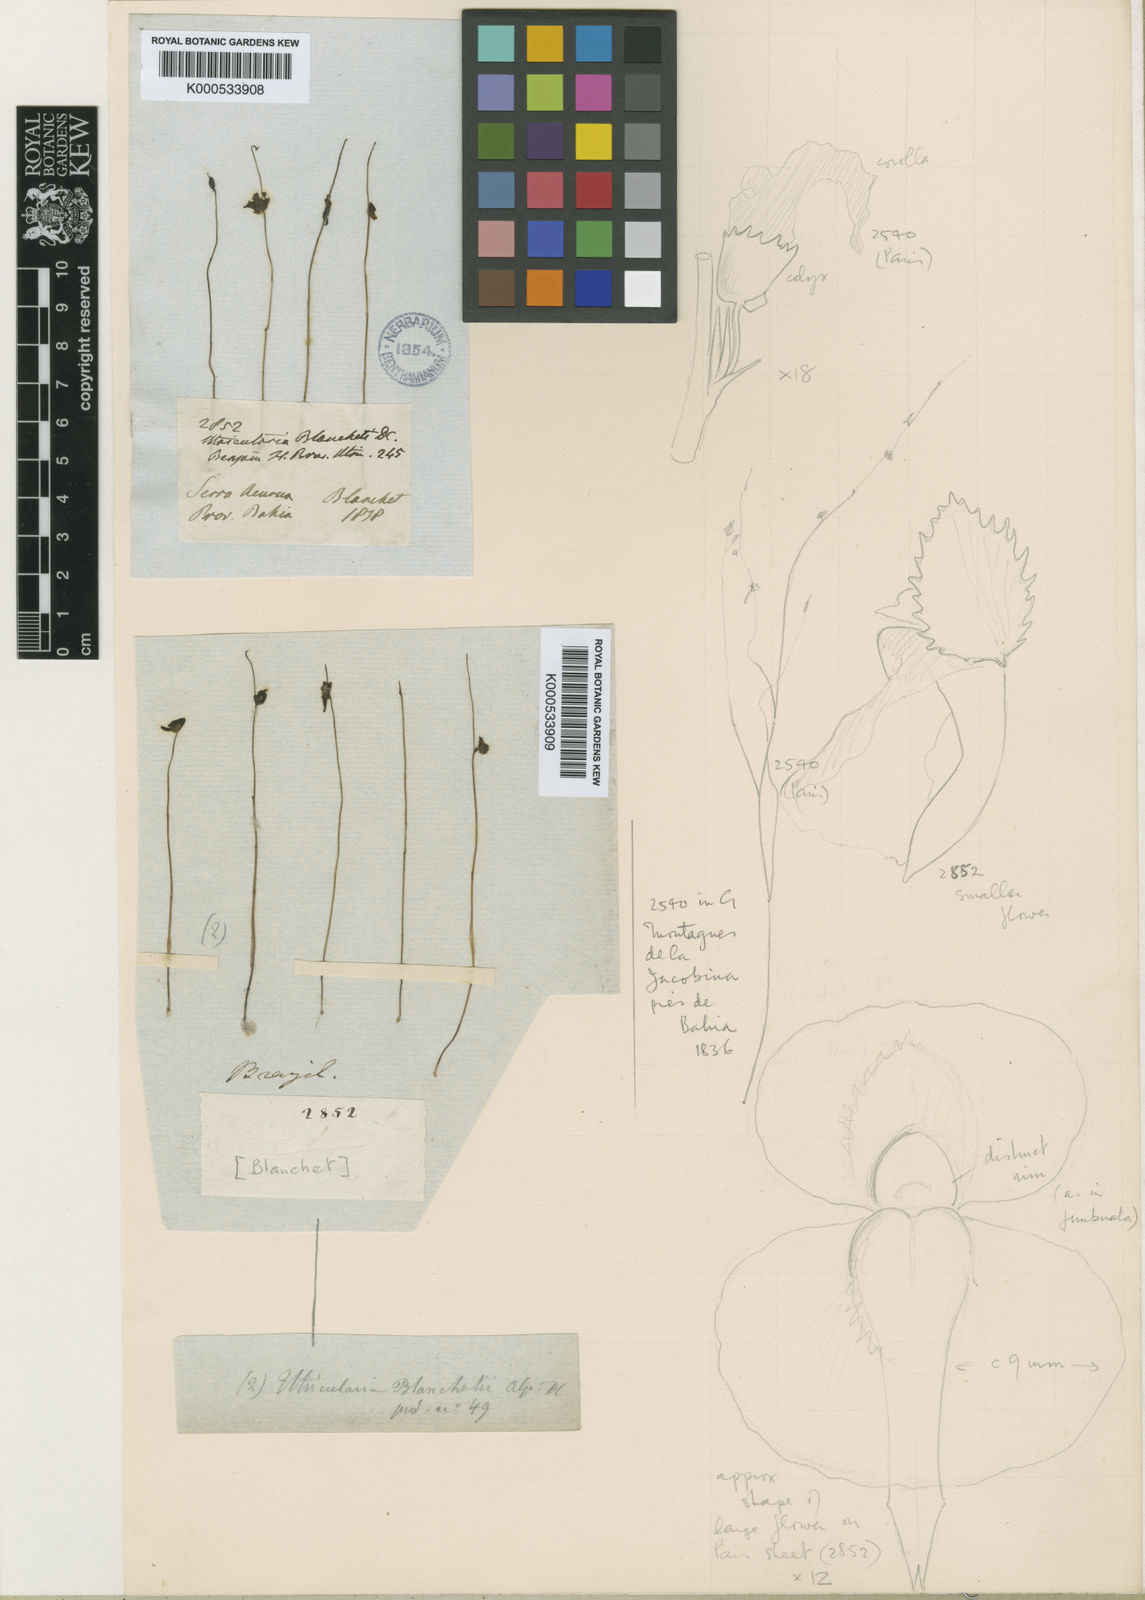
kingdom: Plantae
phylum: Tracheophyta
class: Magnoliopsida
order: Lamiales
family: Lentibulariaceae
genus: Utricularia
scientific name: Utricularia blanchetii
